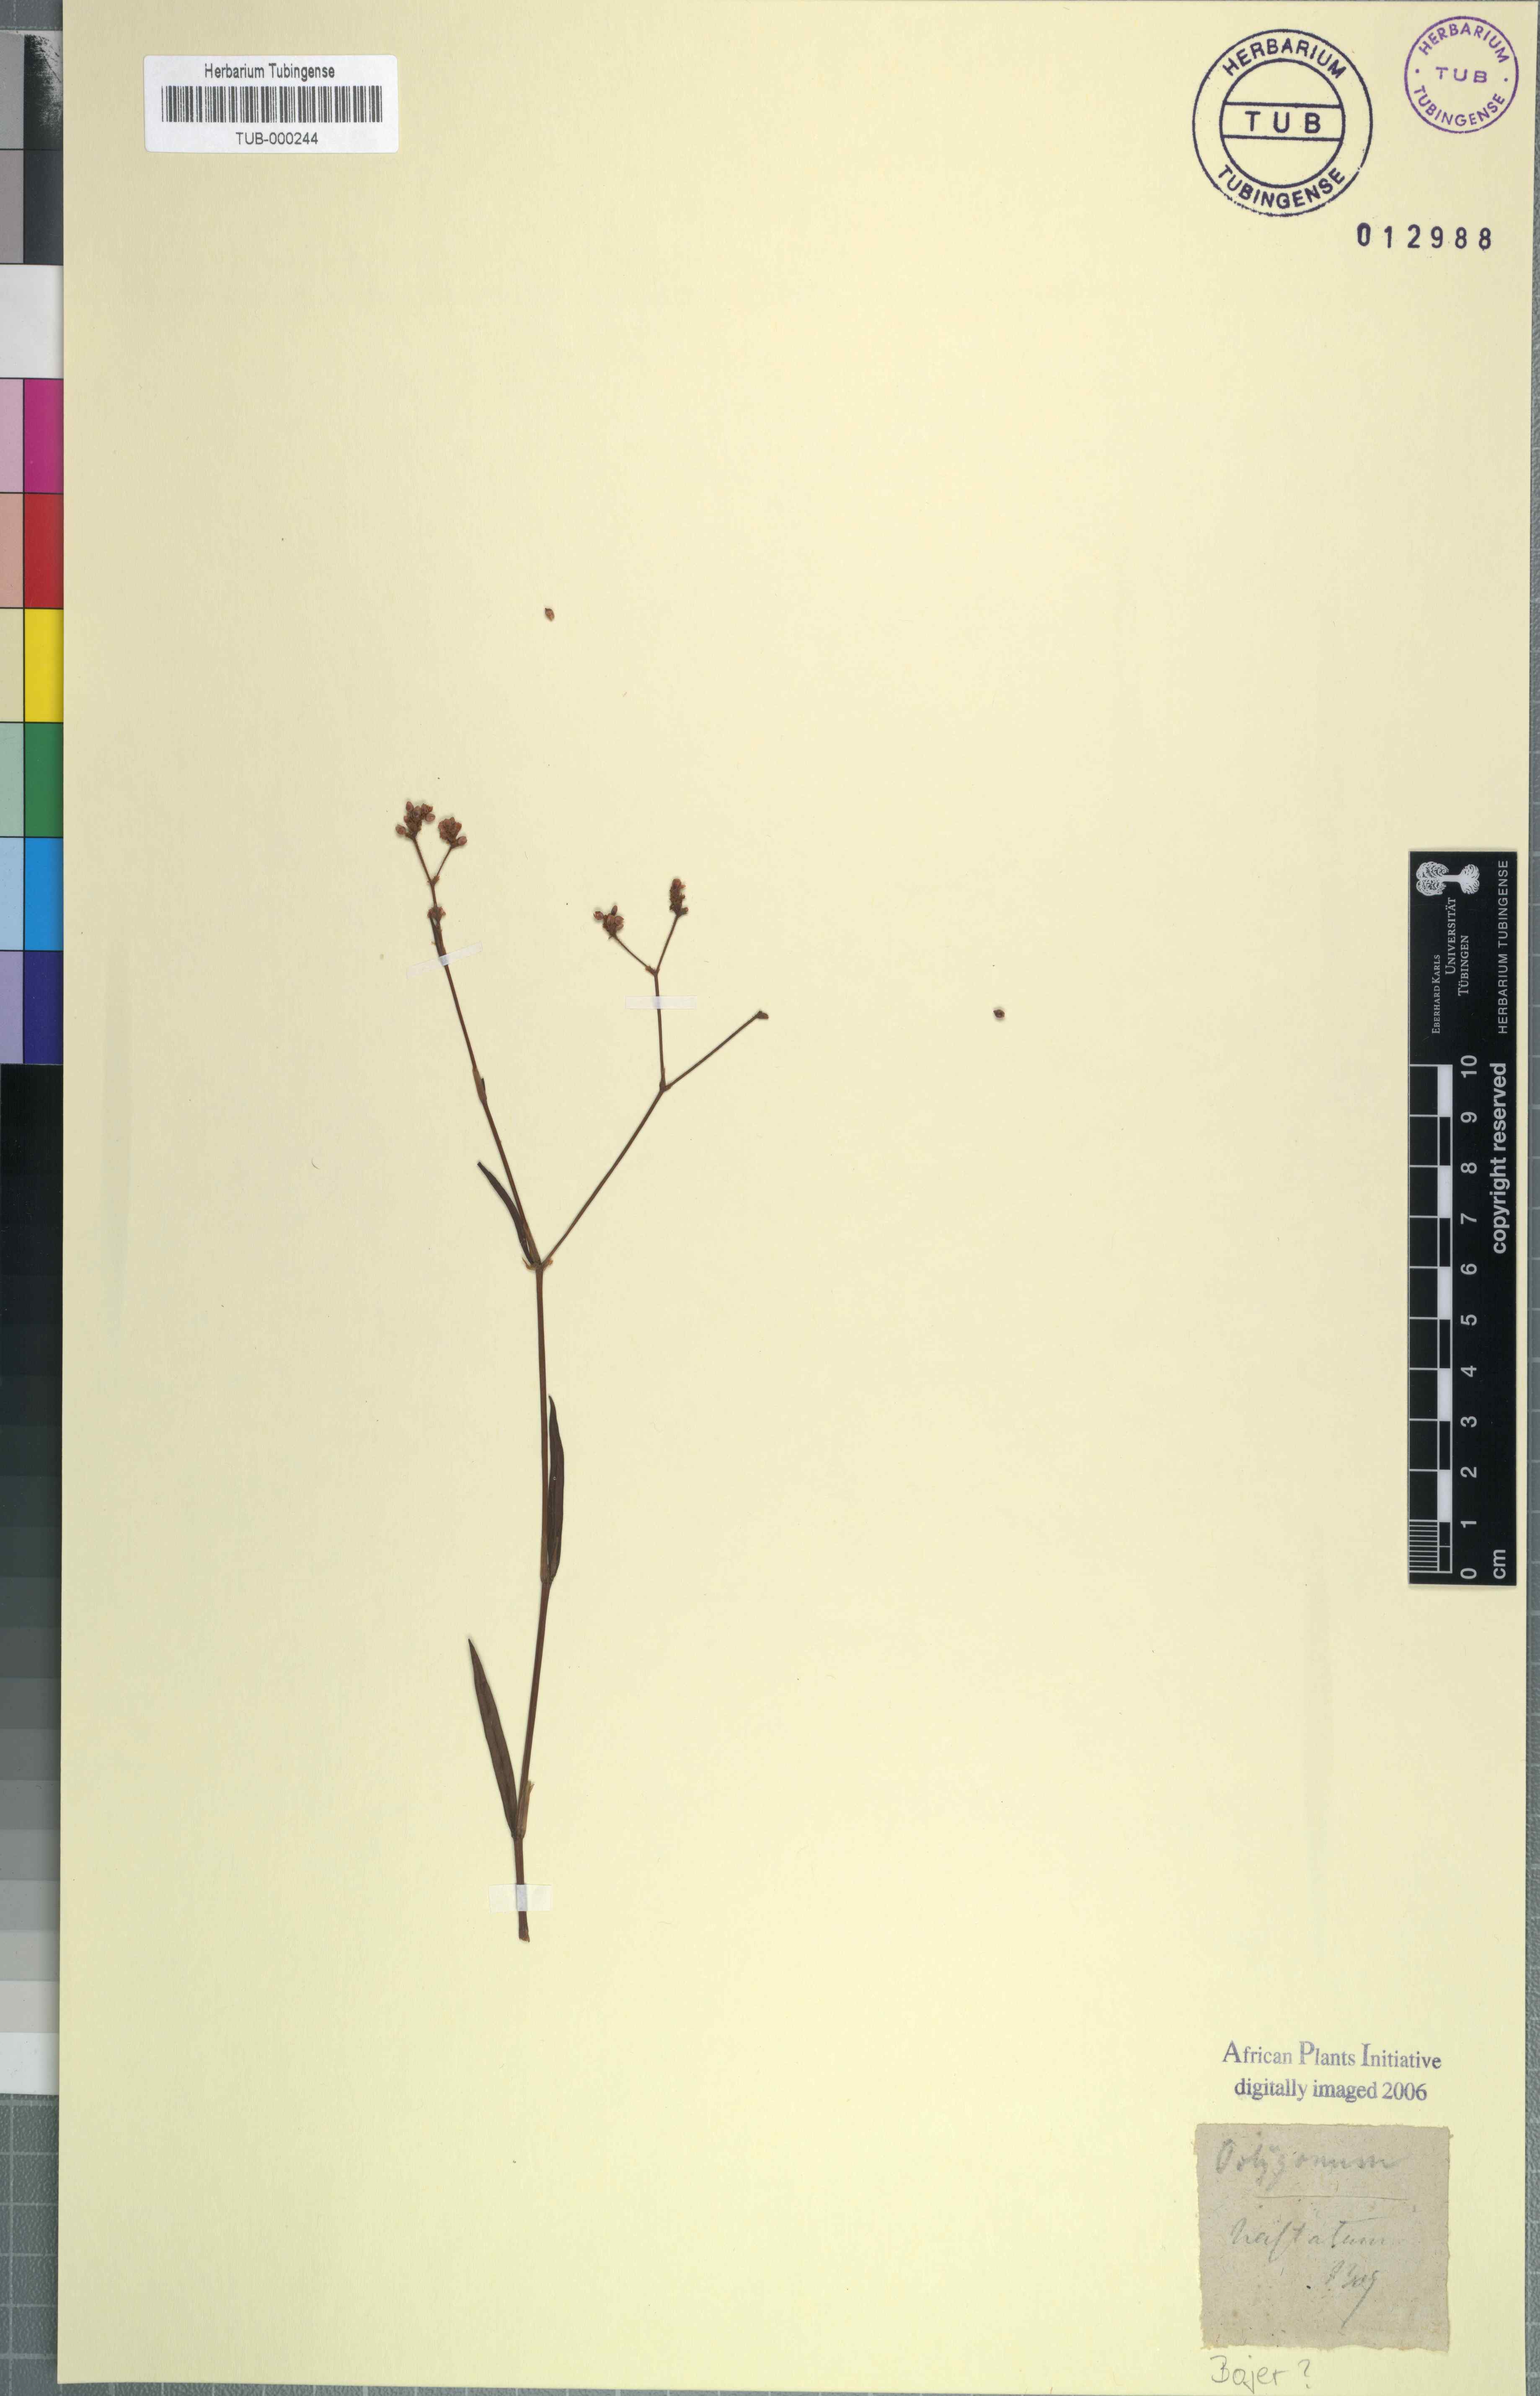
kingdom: Plantae
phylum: Tracheophyta
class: Magnoliopsida
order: Caryophyllales
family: Polygonaceae
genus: Persicaria
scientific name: Persicaria meisneriana
